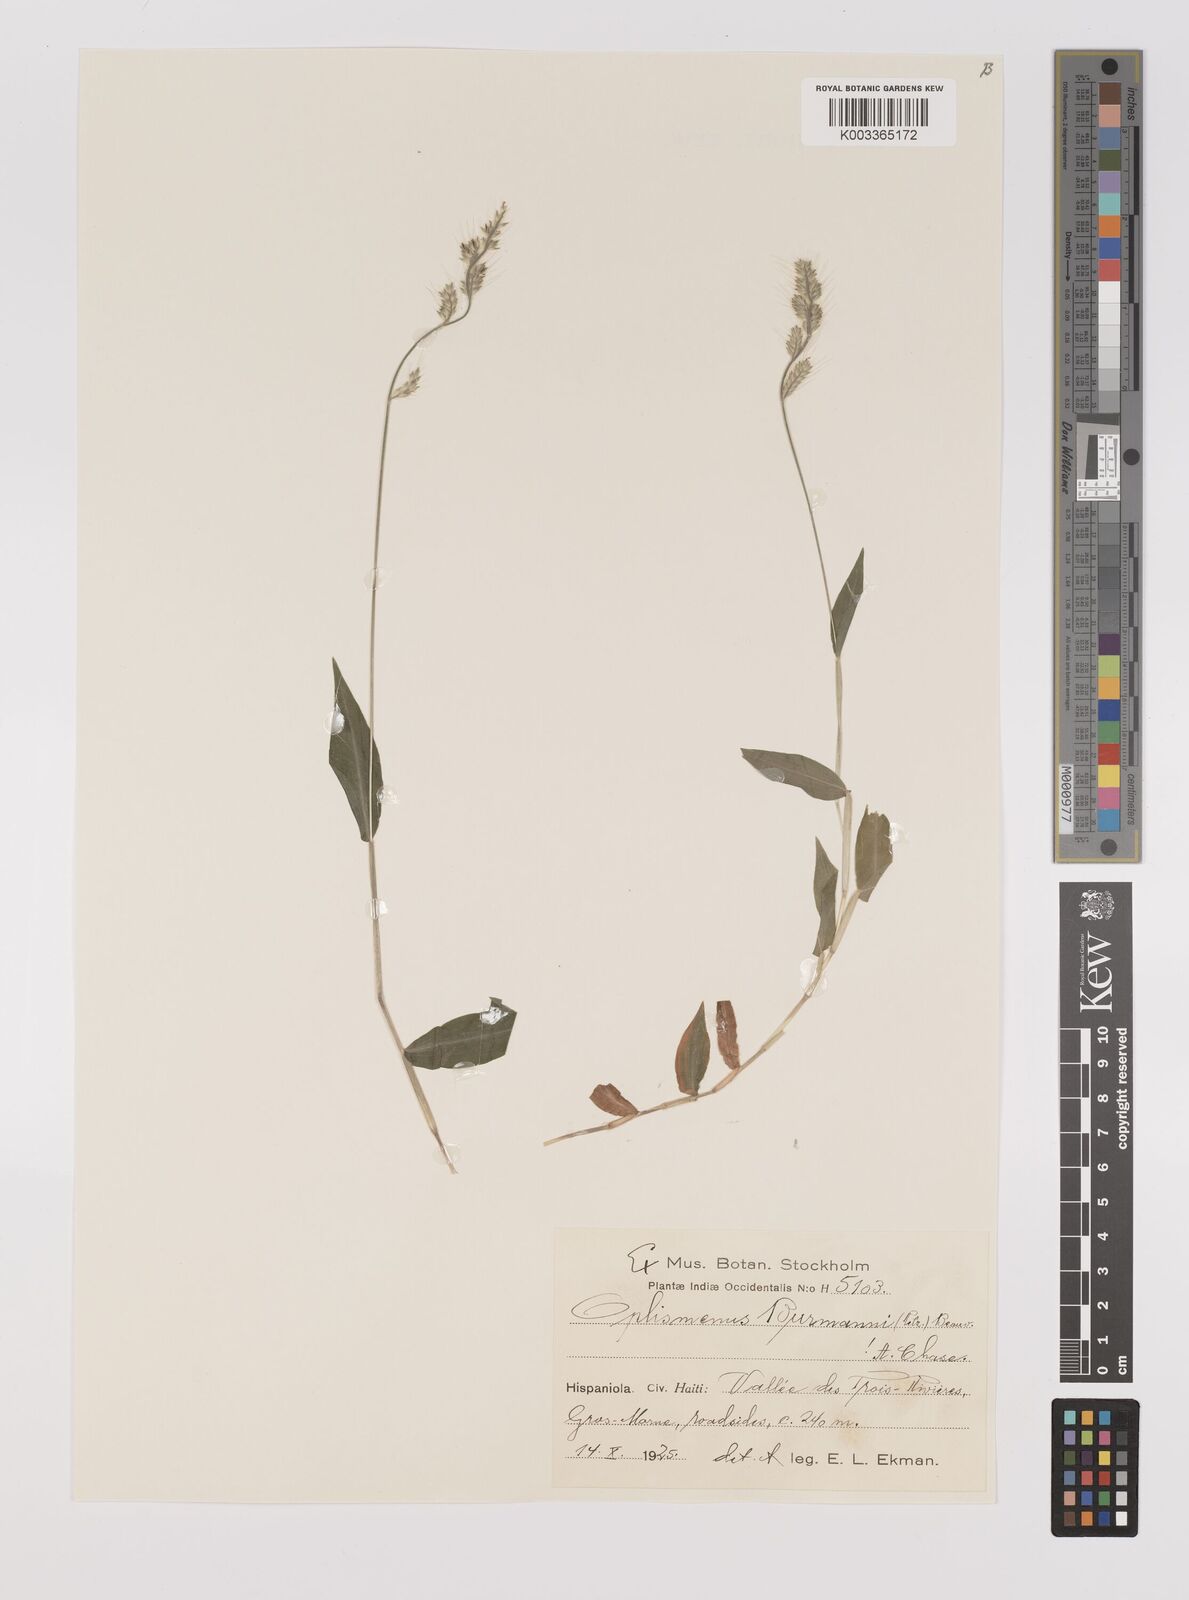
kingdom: Plantae
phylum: Tracheophyta
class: Liliopsida
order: Poales
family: Poaceae
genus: Oplismenus
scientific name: Oplismenus burmanni
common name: Burmann's basketgrass
